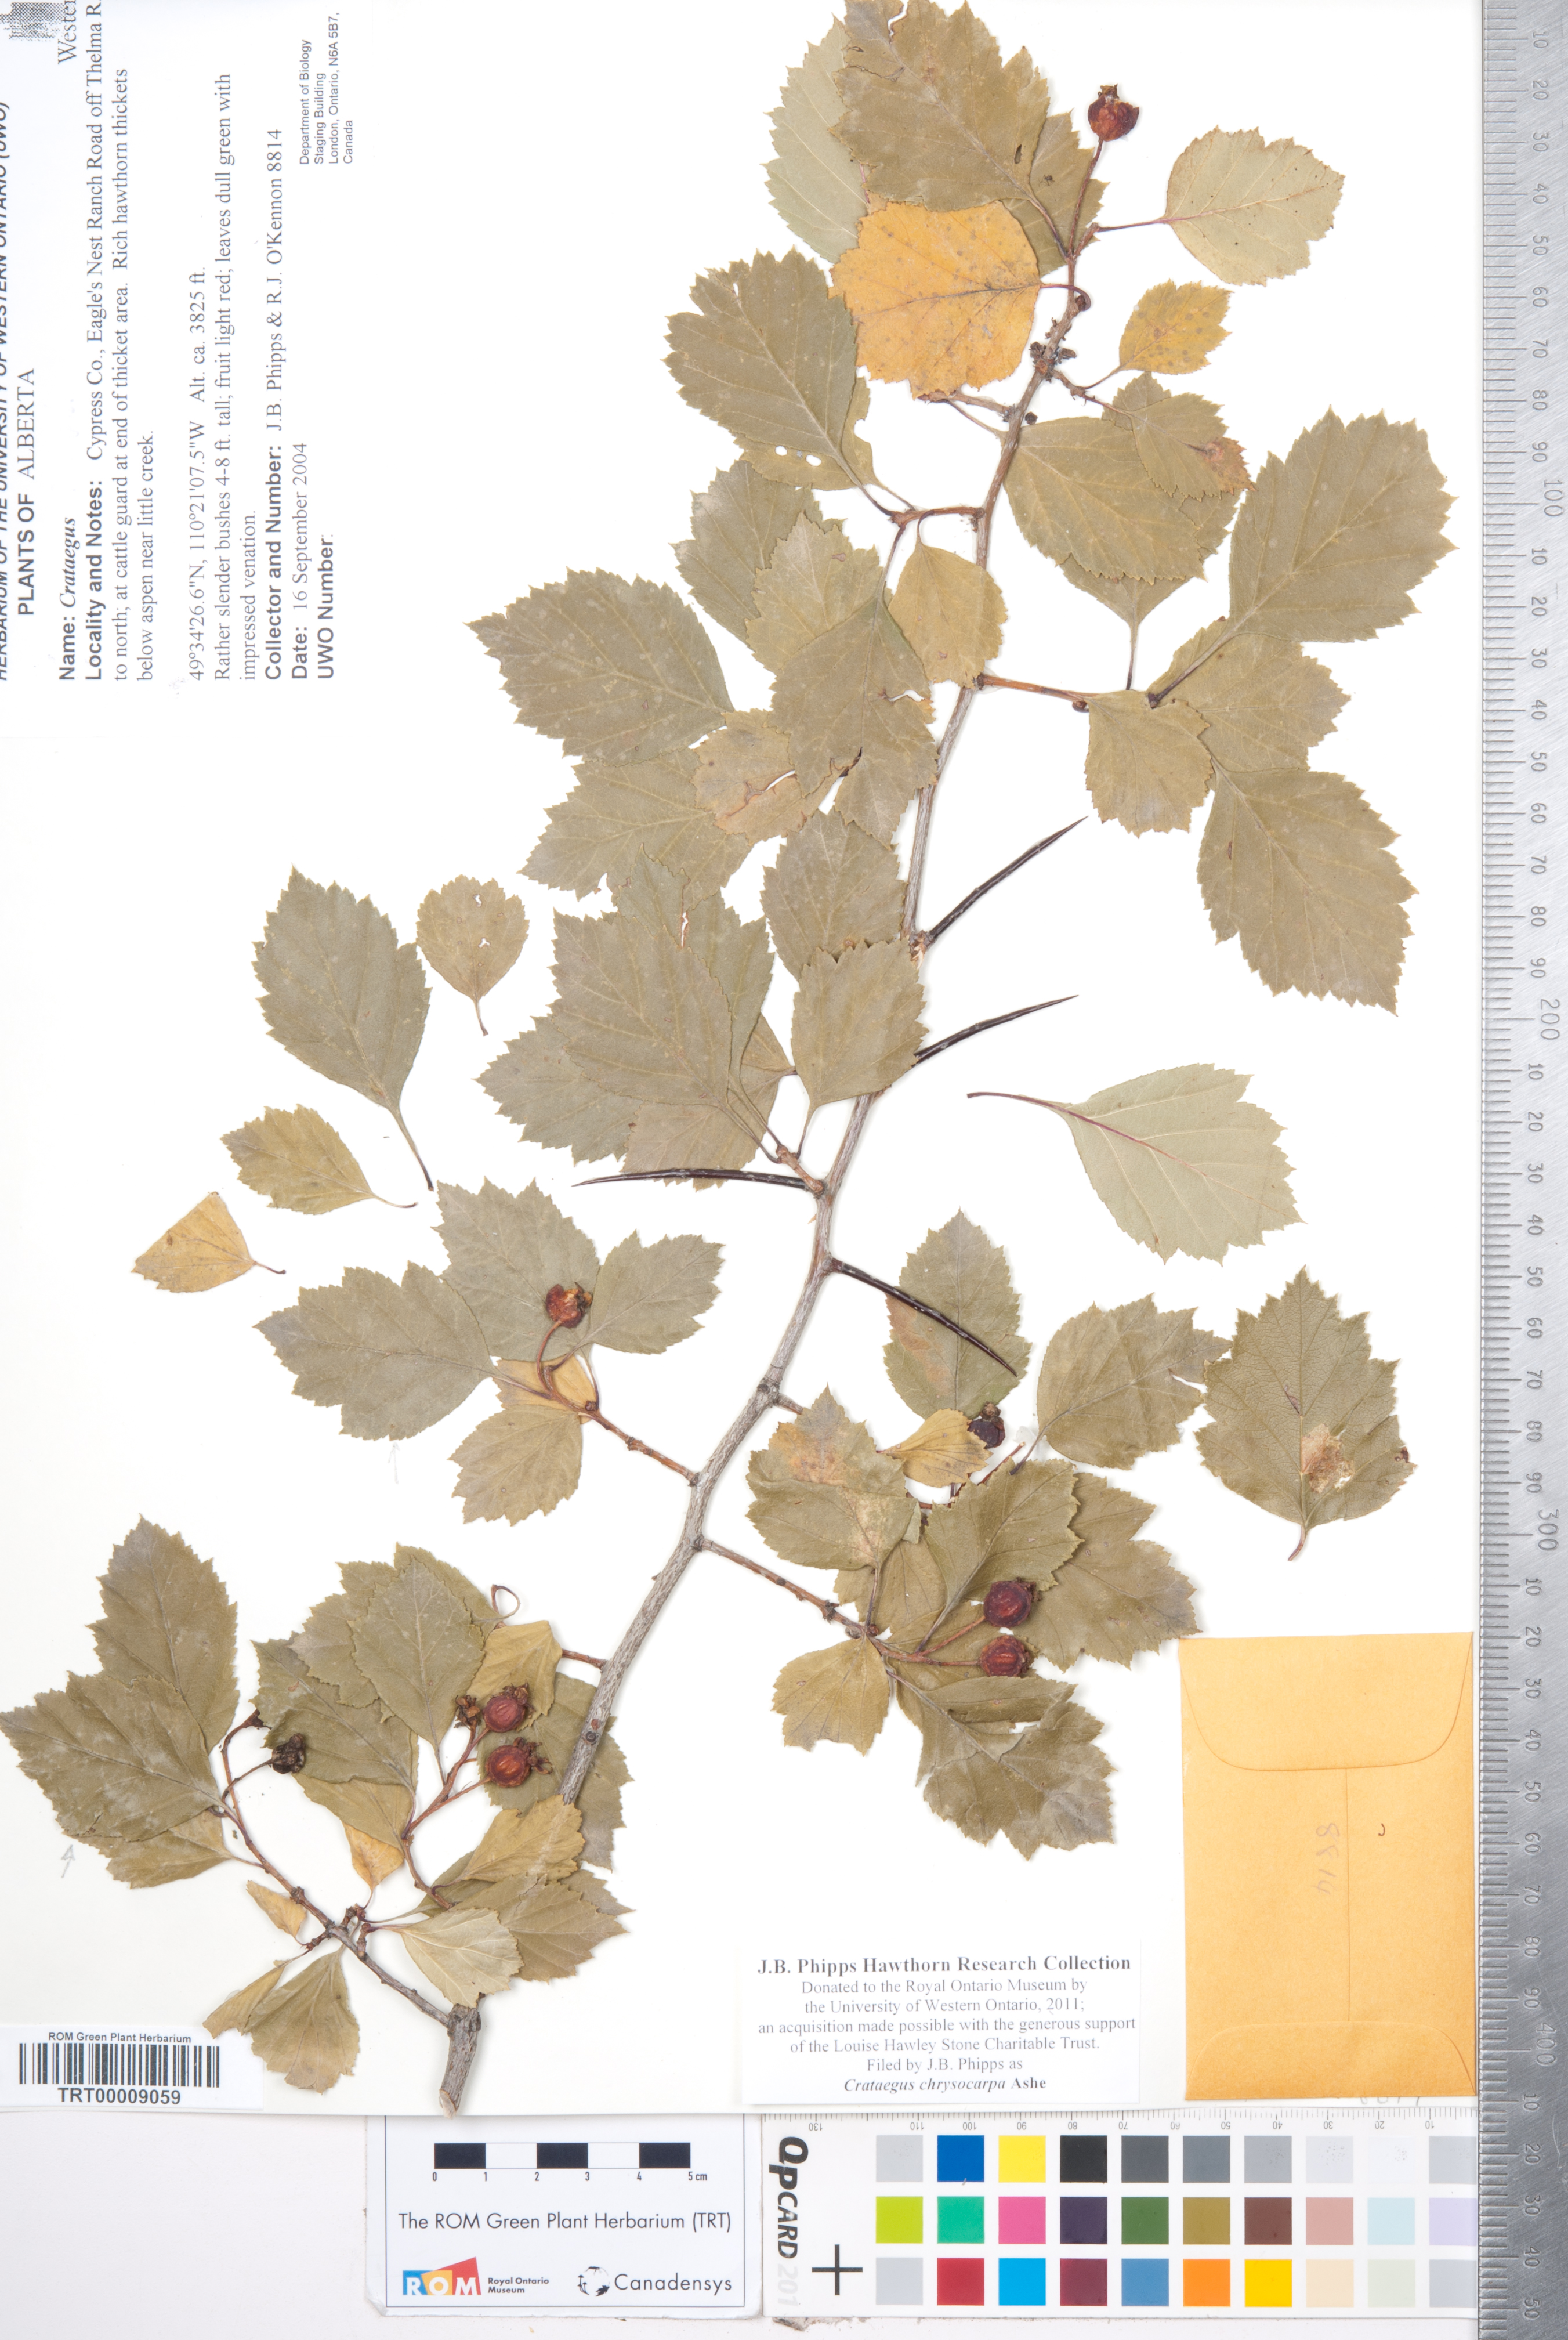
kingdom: Plantae
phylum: Tracheophyta
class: Magnoliopsida
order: Rosales
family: Rosaceae
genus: Crataegus
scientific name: Crataegus chrysocarpa
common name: Fire-berry hawthorn
